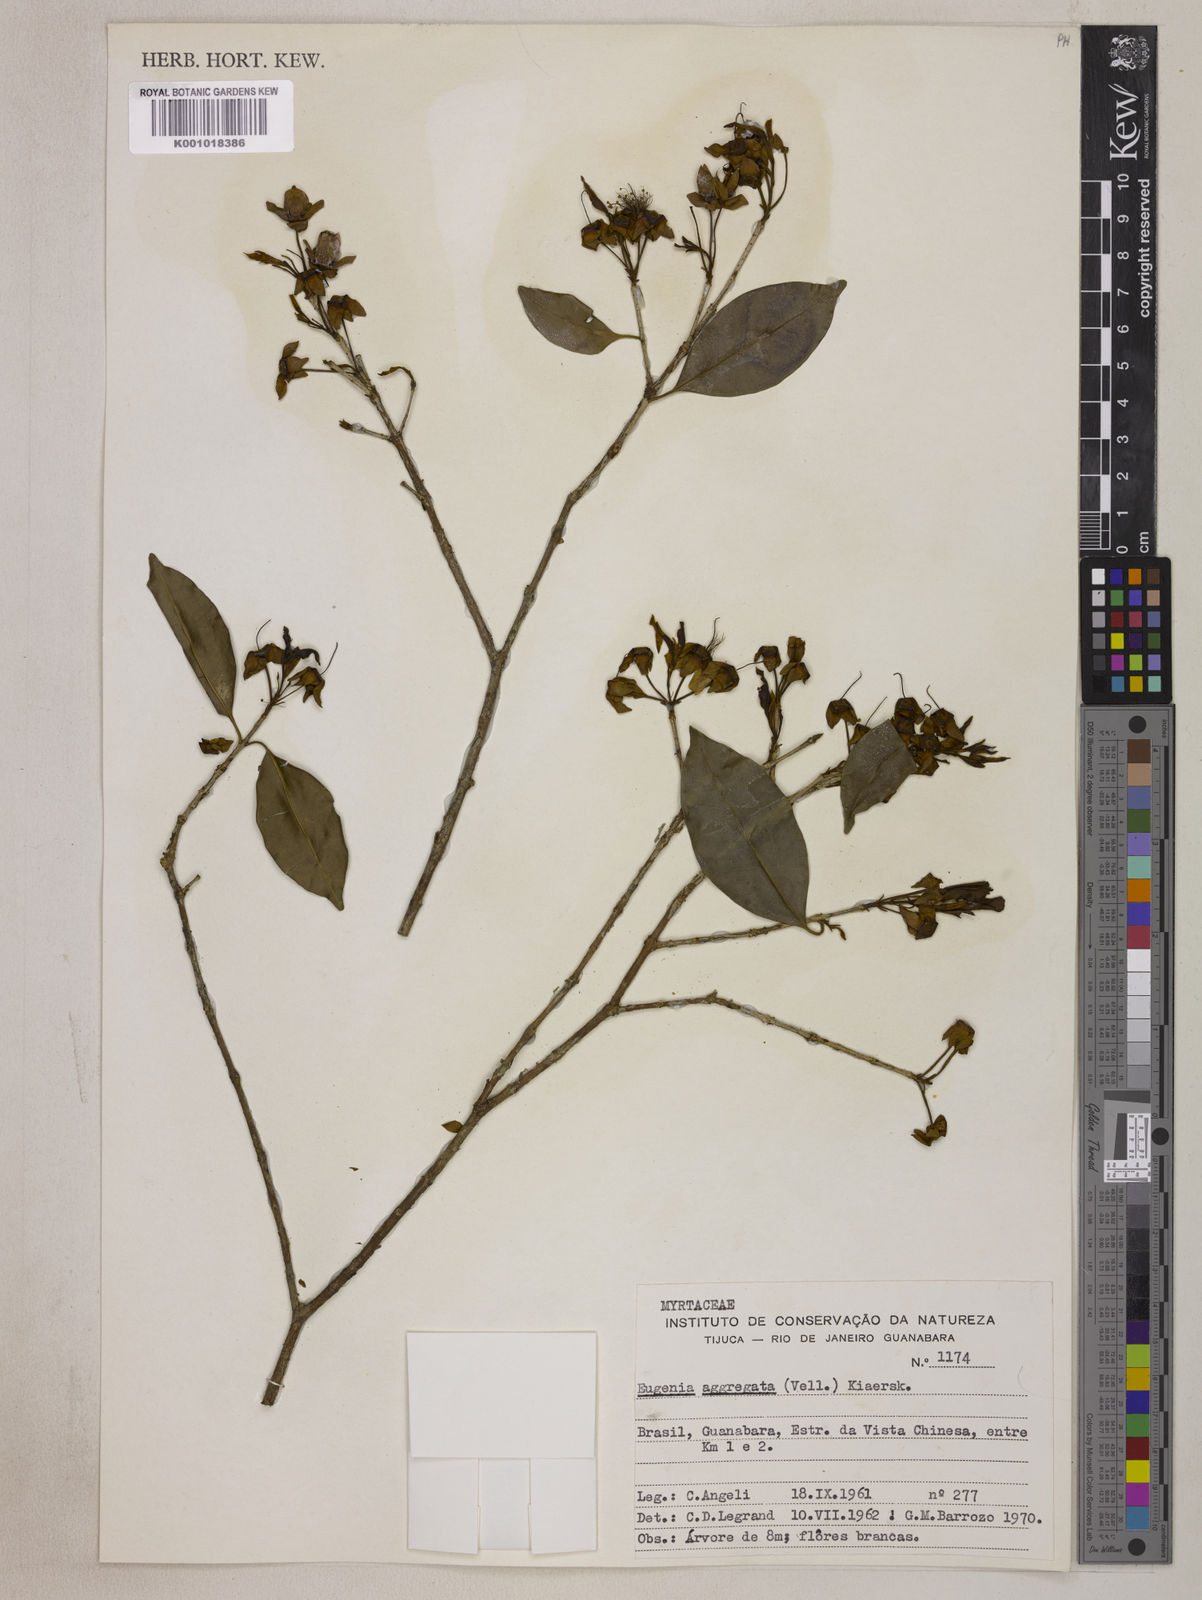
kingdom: Plantae
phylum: Tracheophyta
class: Magnoliopsida
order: Myrtales
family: Myrtaceae
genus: Eugenia
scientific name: Eugenia involucrata
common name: Cherry-of-the-rio grande
